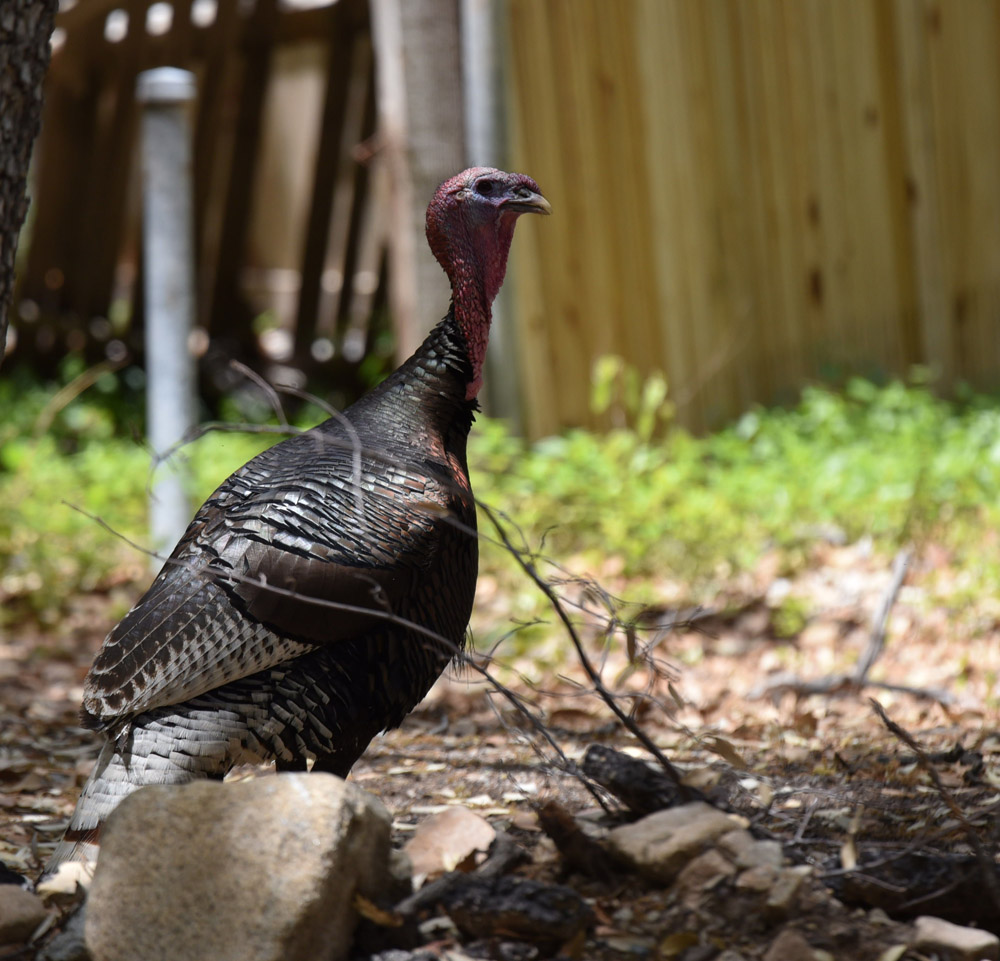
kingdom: Animalia
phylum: Chordata
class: Aves
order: Galliformes
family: Phasianidae
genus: Meleagris
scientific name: Meleagris gallopavo
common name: Wild turkey
